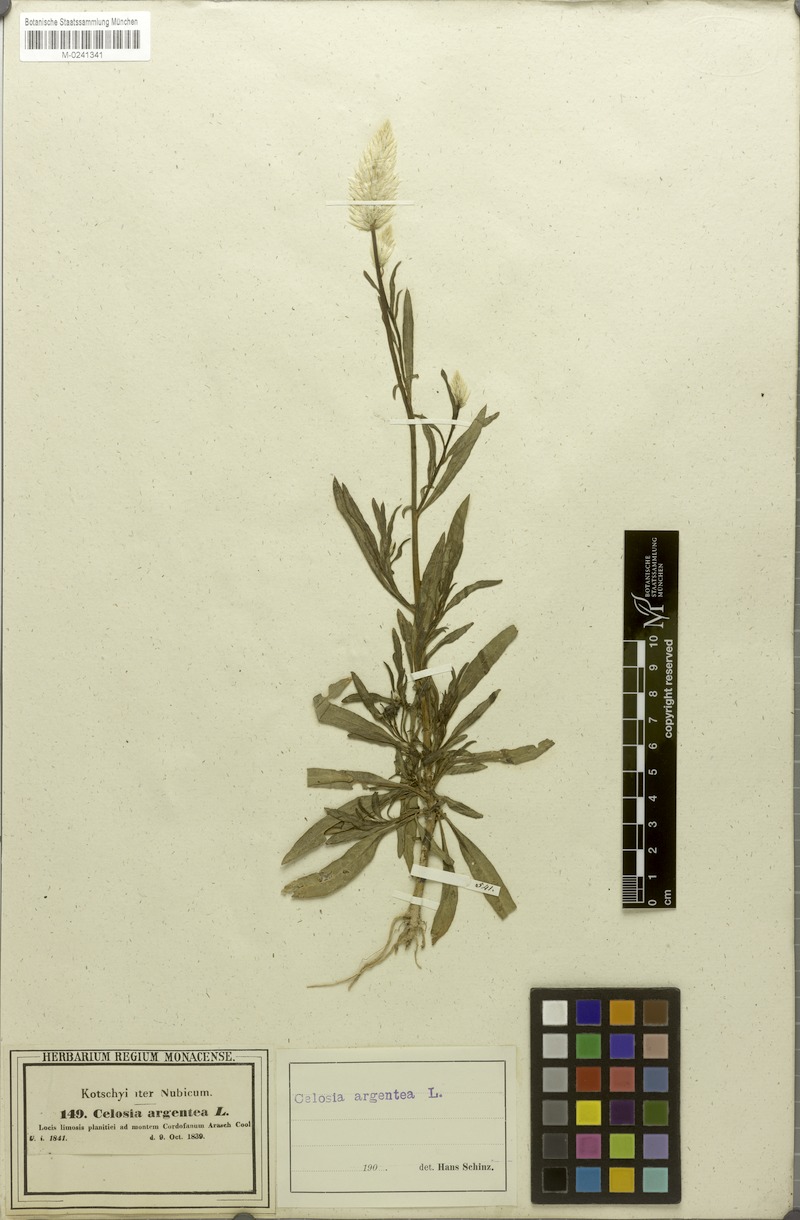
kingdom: Plantae
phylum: Tracheophyta
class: Magnoliopsida
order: Caryophyllales
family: Amaranthaceae
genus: Celosia
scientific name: Celosia argentea
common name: Feather cockscomb
